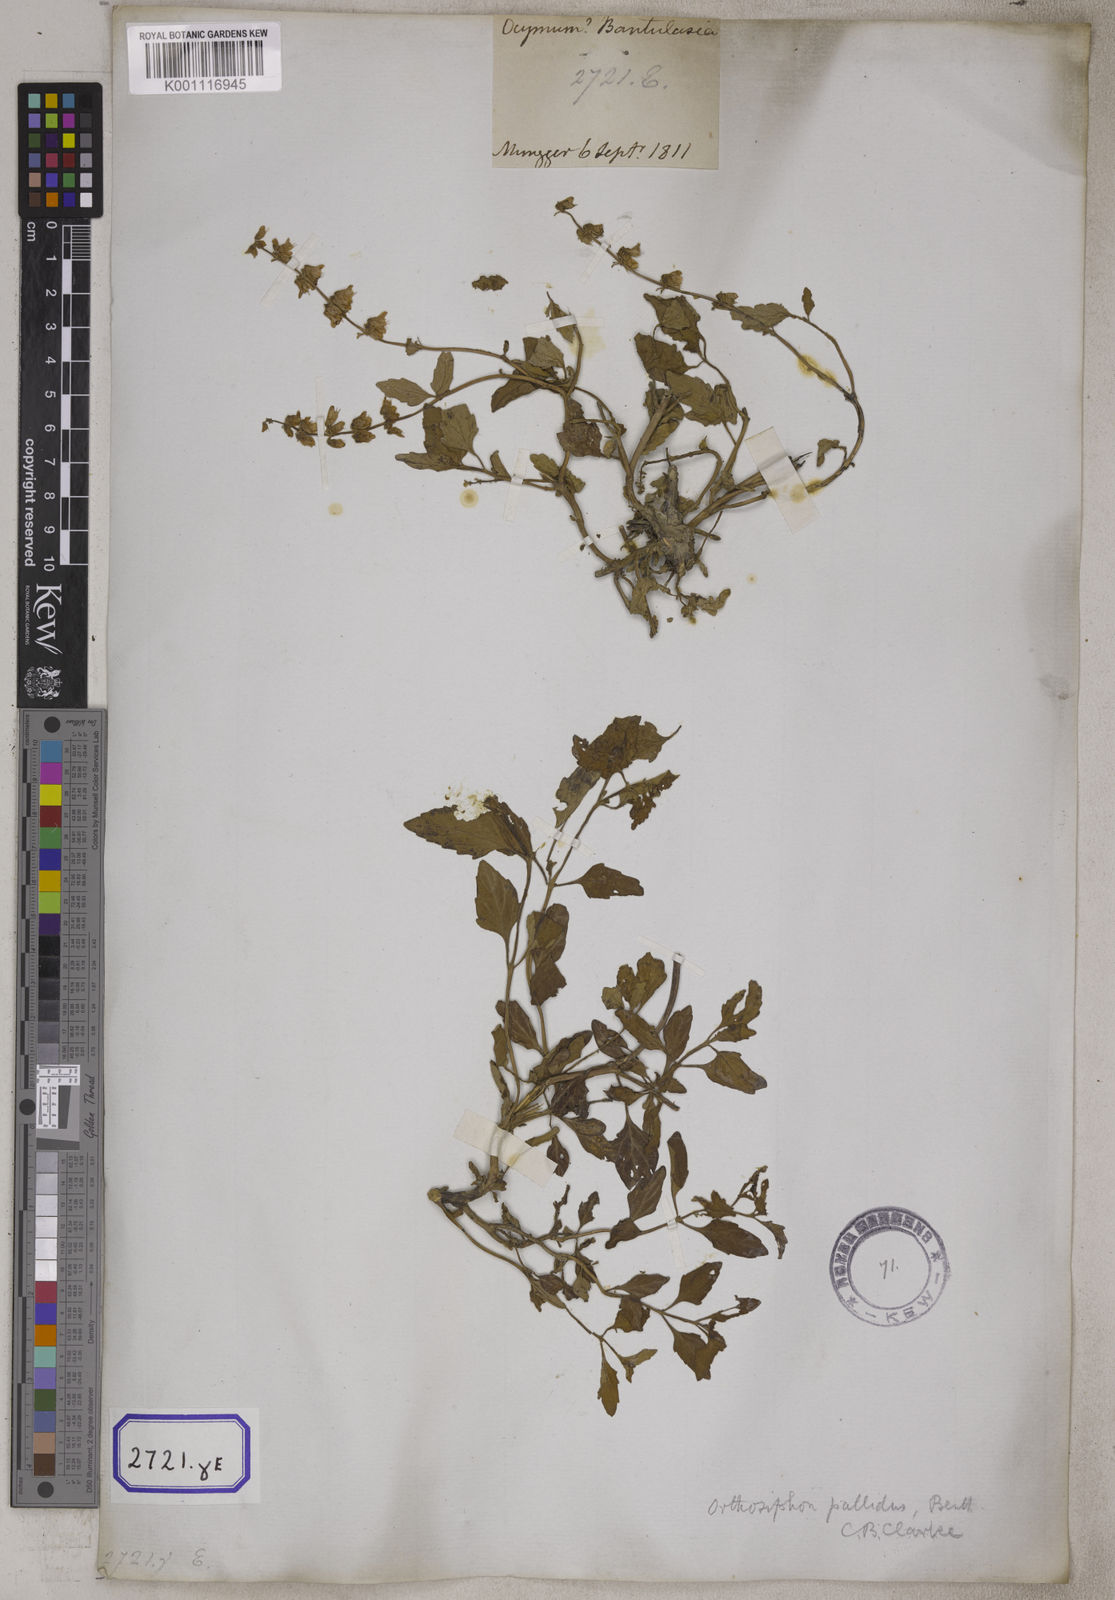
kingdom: Plantae
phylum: Tracheophyta
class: Magnoliopsida
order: Lamiales
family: Lamiaceae
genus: Orthosiphon
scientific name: Orthosiphon
